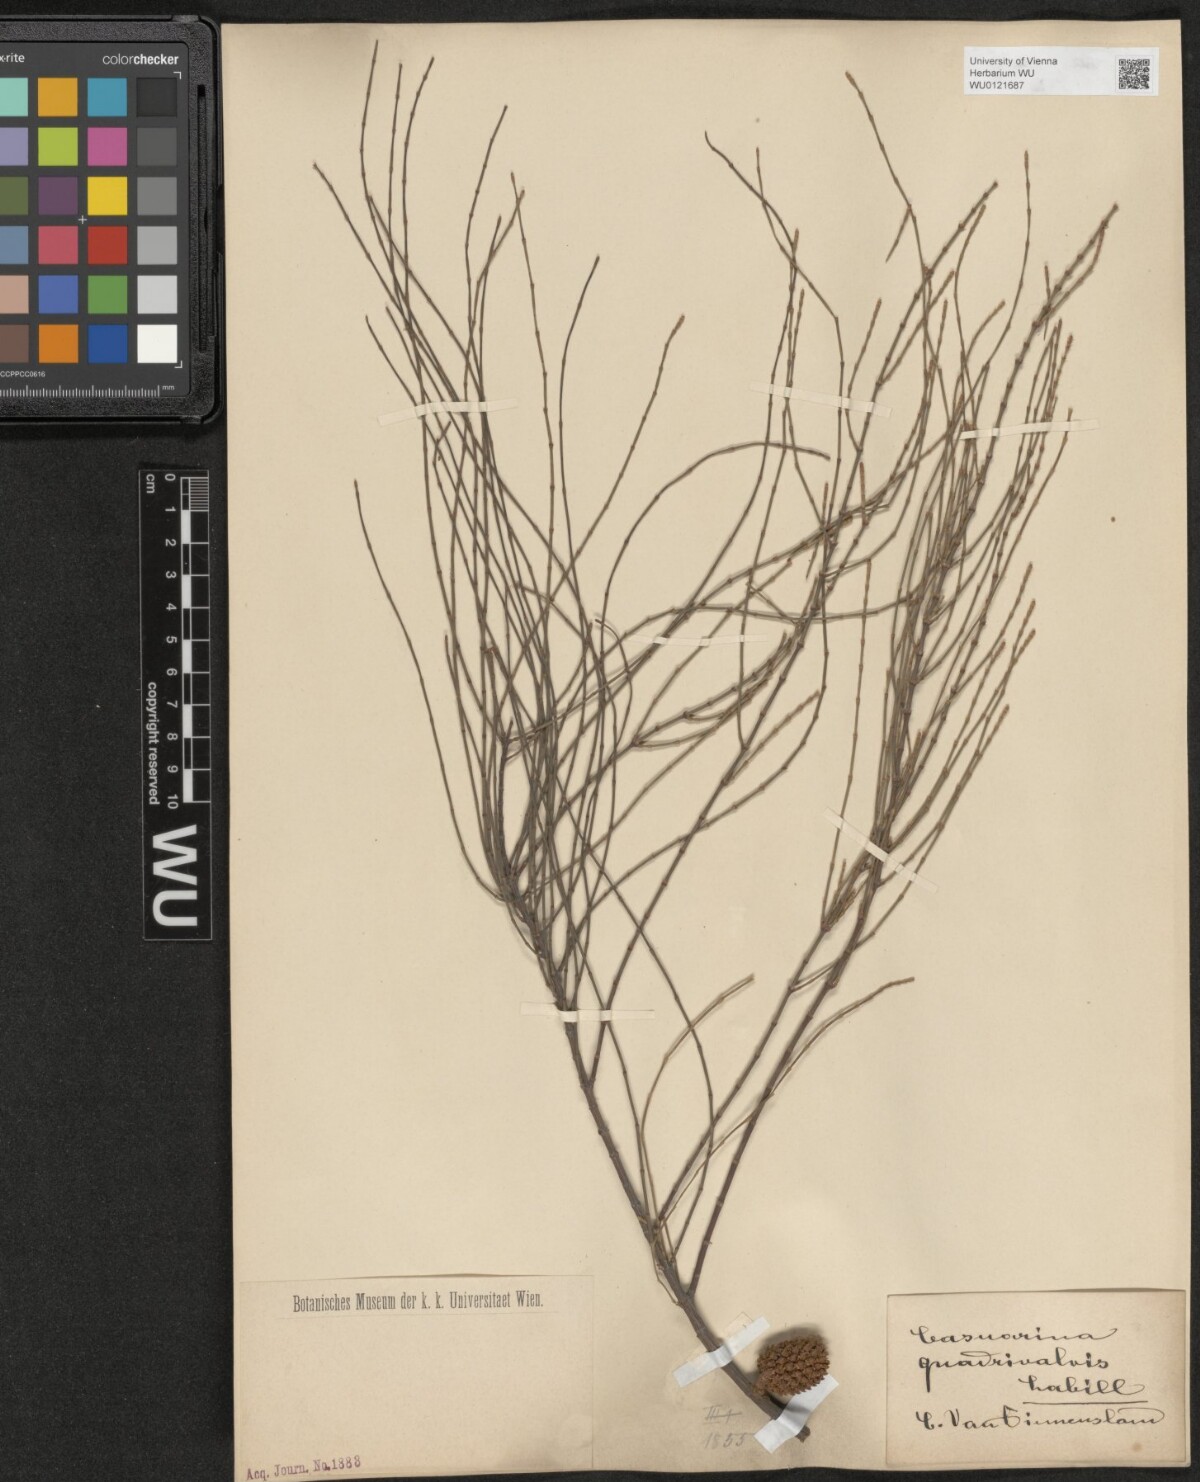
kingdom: Plantae
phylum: Tracheophyta
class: Magnoliopsida
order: Fagales
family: Casuarinaceae
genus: Allocasuarina
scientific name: Allocasuarina verticillata
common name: Drooping she-oak
